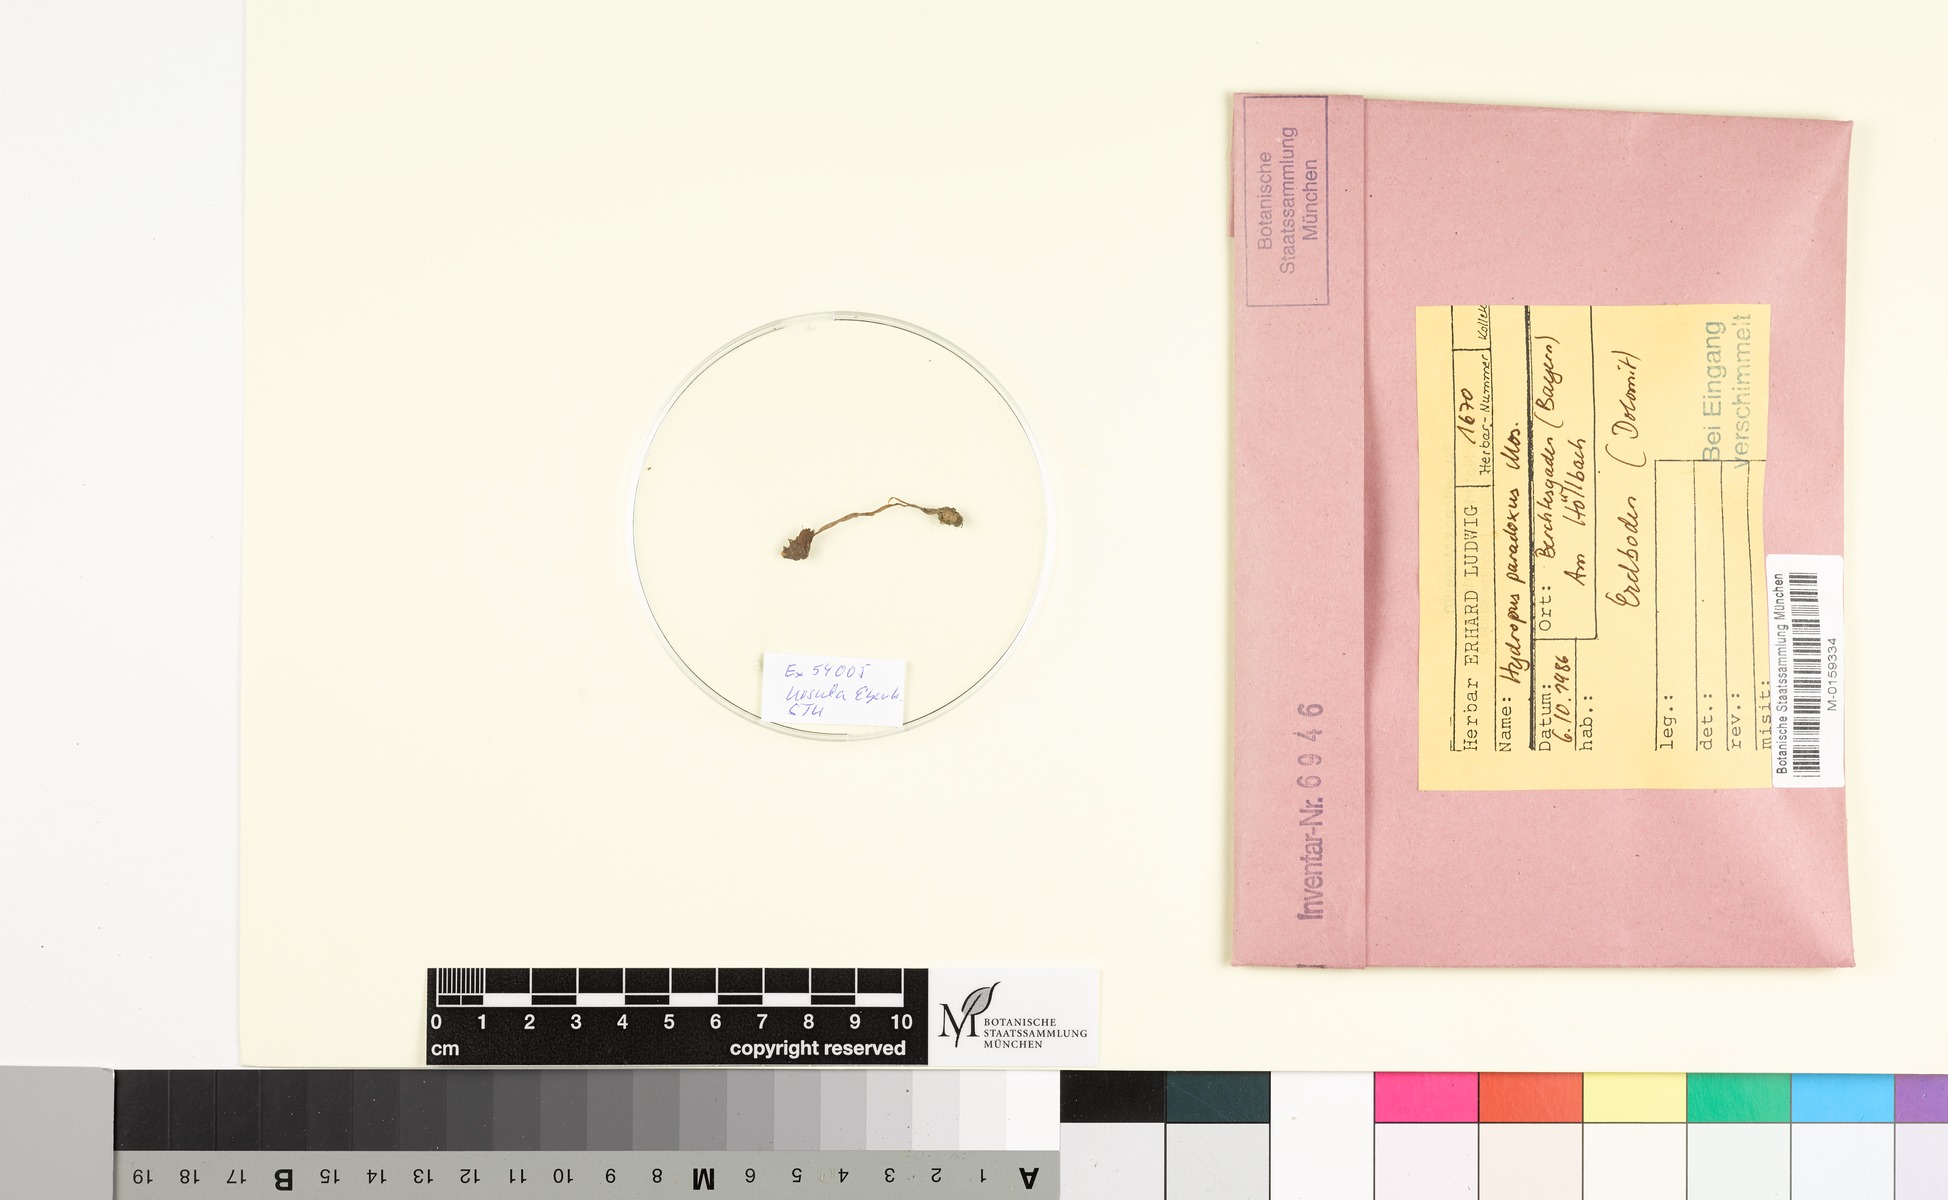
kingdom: Fungi
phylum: Basidiomycota
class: Agaricomycetes
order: Agaricales
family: Mycenaceae
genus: Hydropus
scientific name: Hydropus paradoxus
